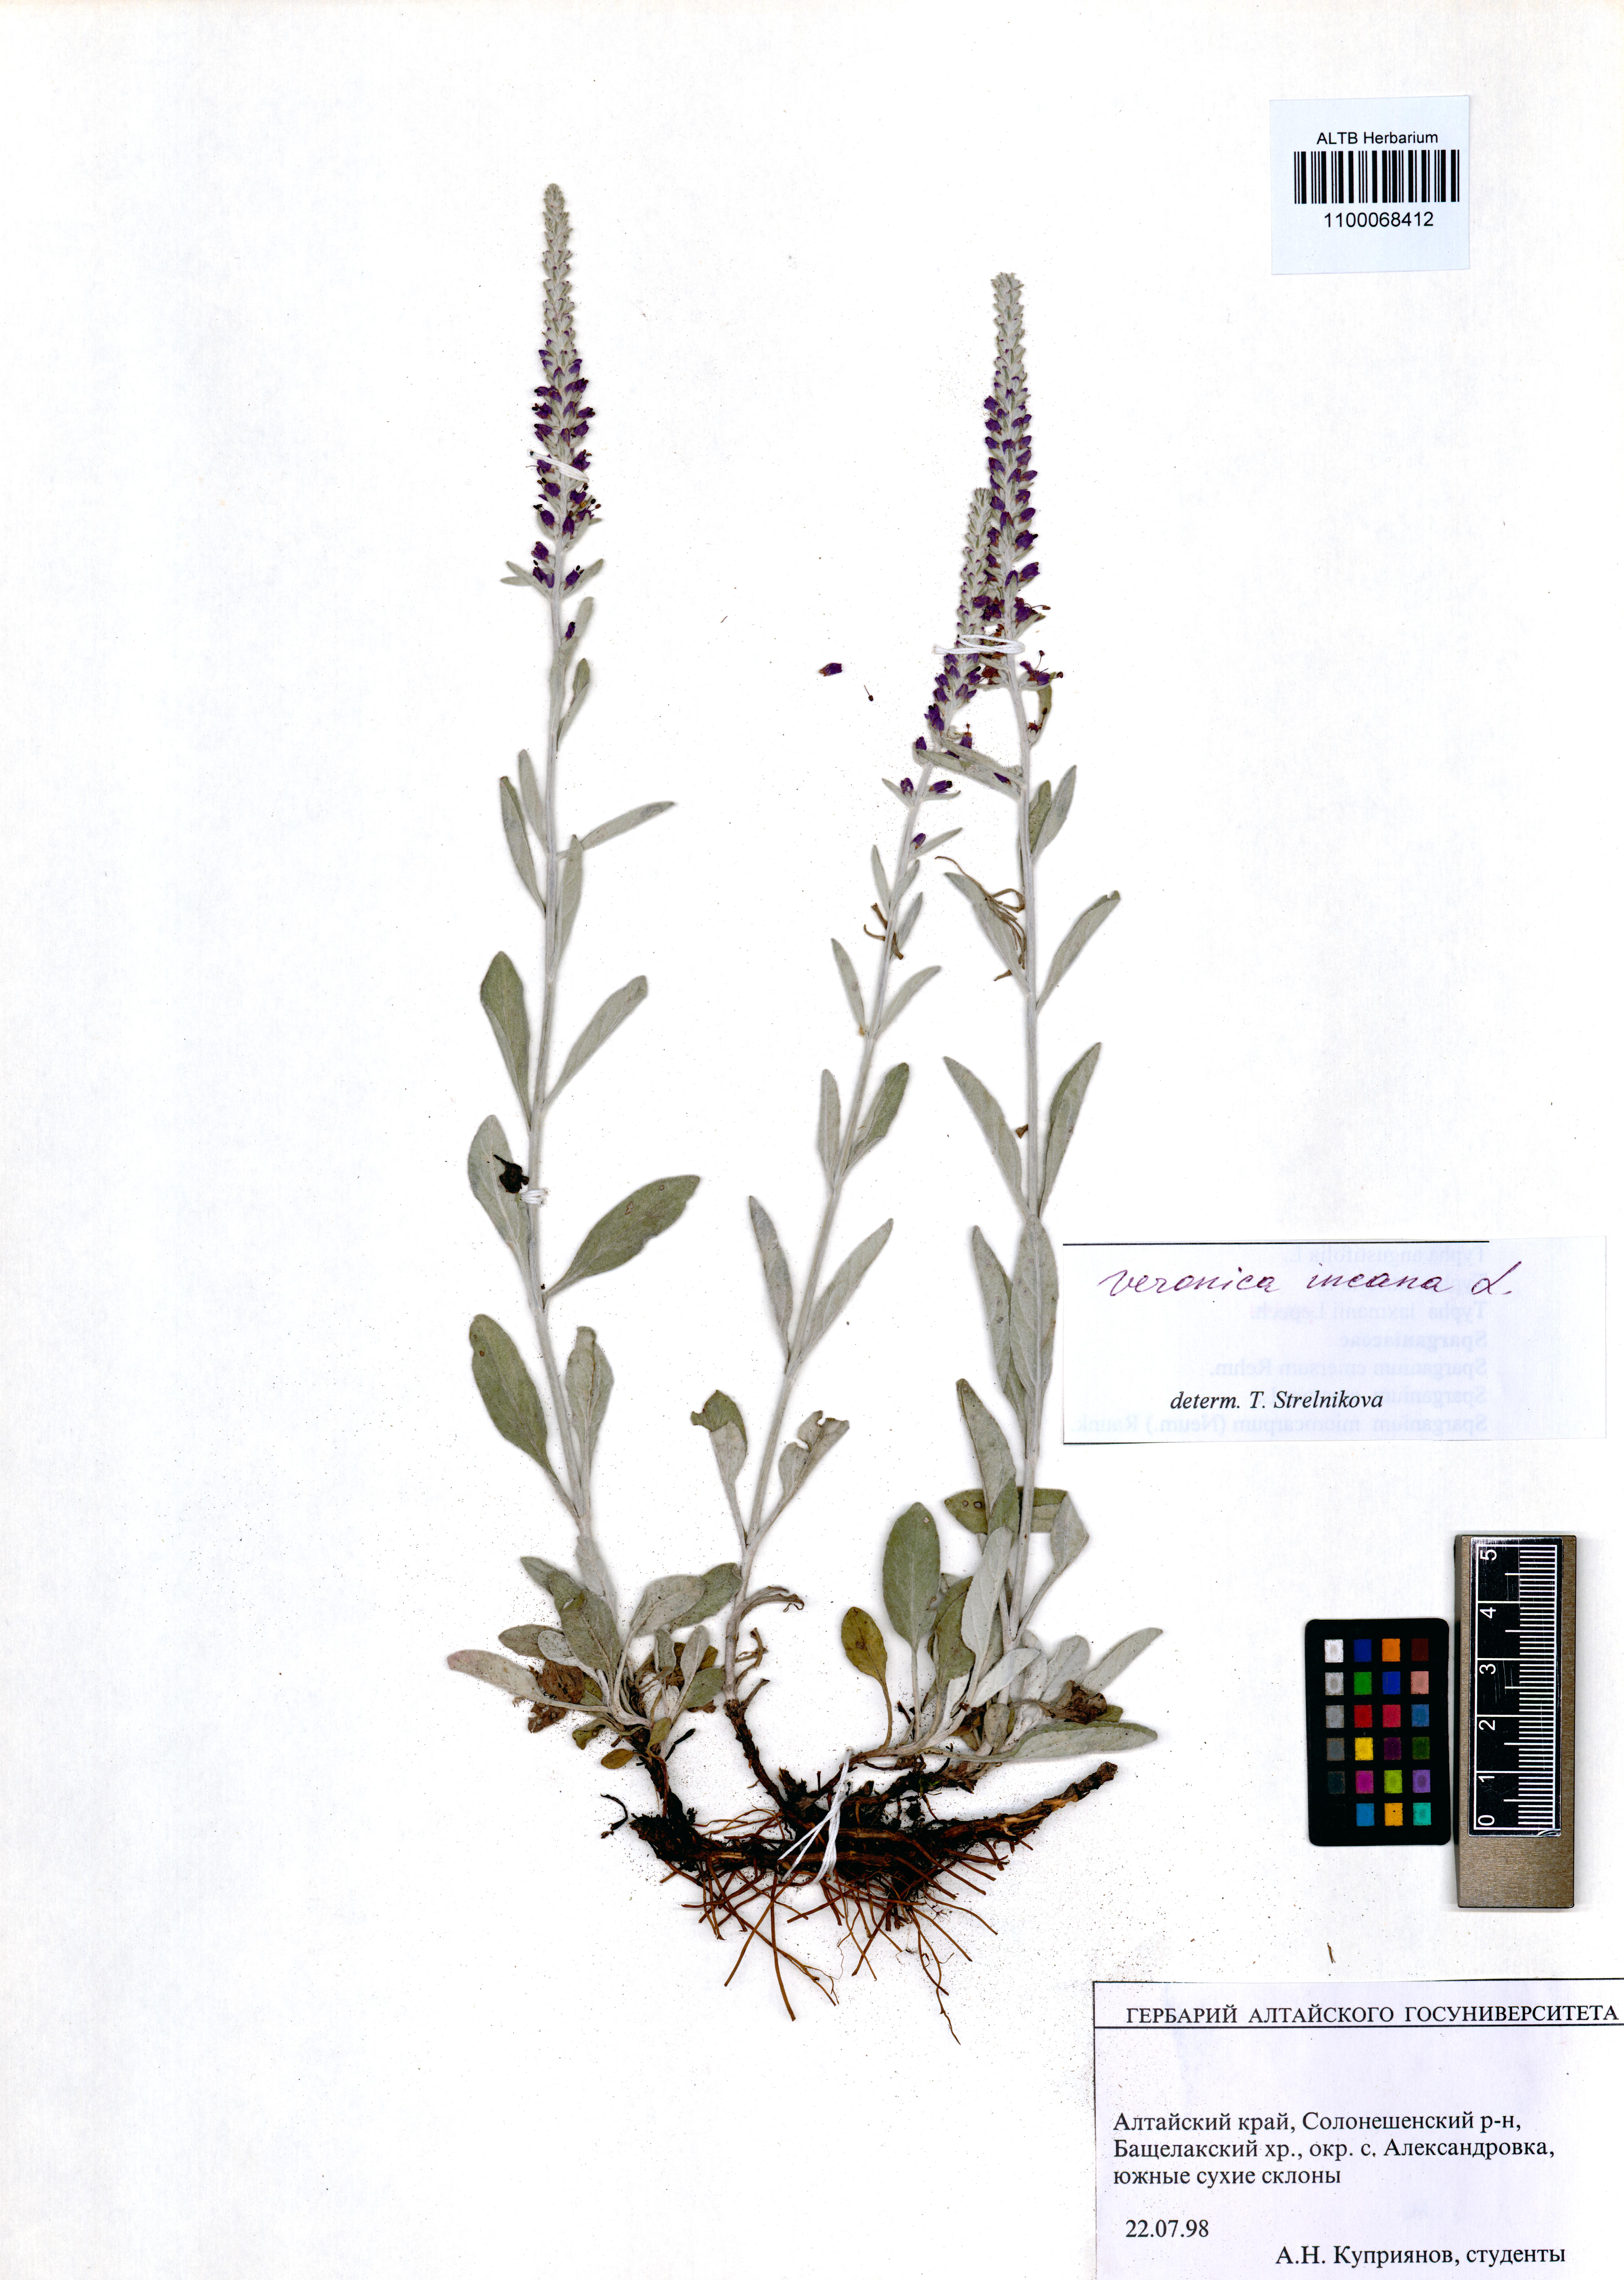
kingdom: Plantae
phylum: Tracheophyta
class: Magnoliopsida
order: Lamiales
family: Plantaginaceae
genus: Veronica
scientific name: Veronica incana
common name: Silver speedwell
